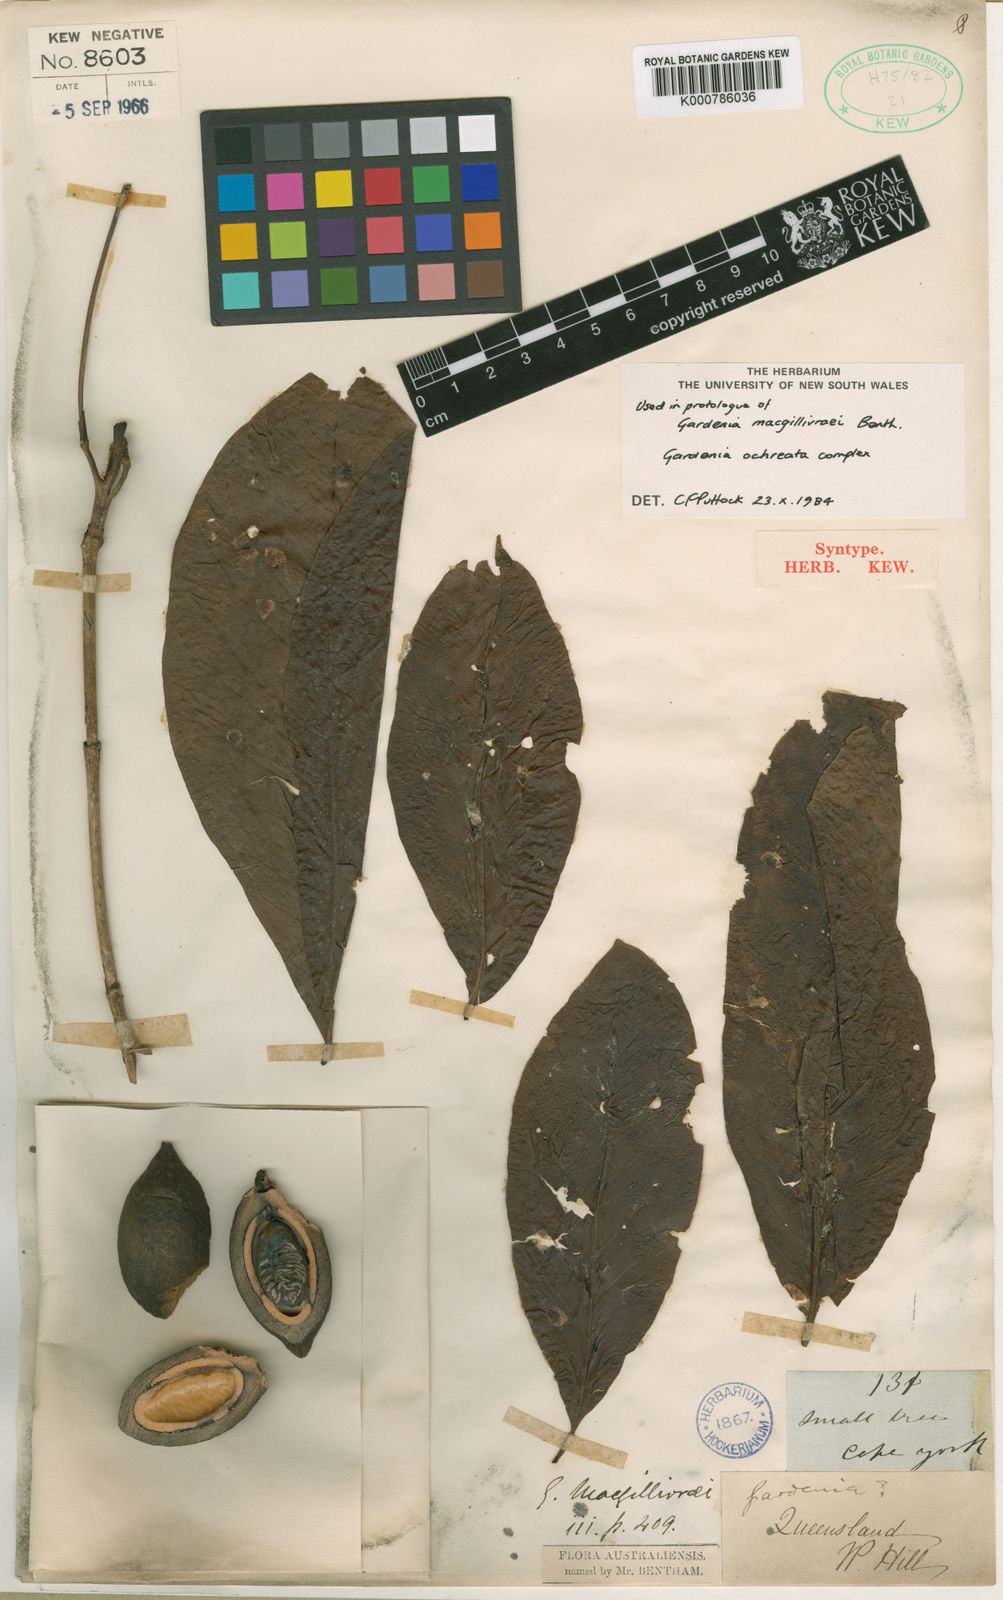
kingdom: Plantae
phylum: Tracheophyta
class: Magnoliopsida
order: Gentianales
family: Rubiaceae
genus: Larsenaikia
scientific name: Larsenaikia ochreata
